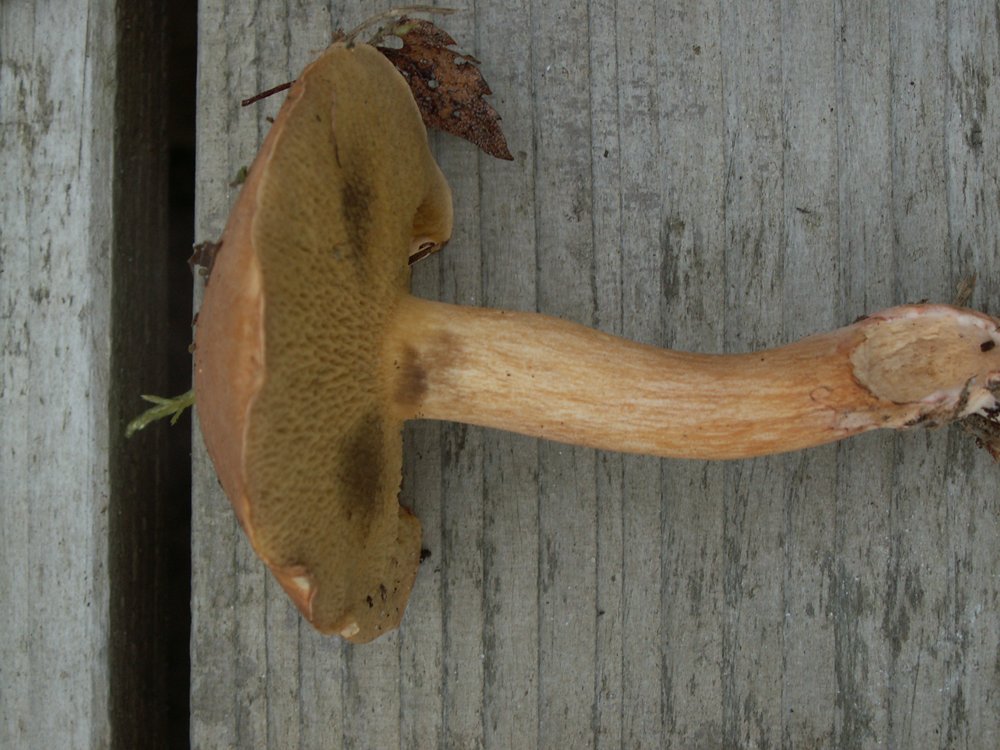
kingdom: Fungi
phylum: Basidiomycota
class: Agaricomycetes
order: Boletales
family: Suillaceae
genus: Suillus
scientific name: Suillus bovinus
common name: grovporet slimrørhat
